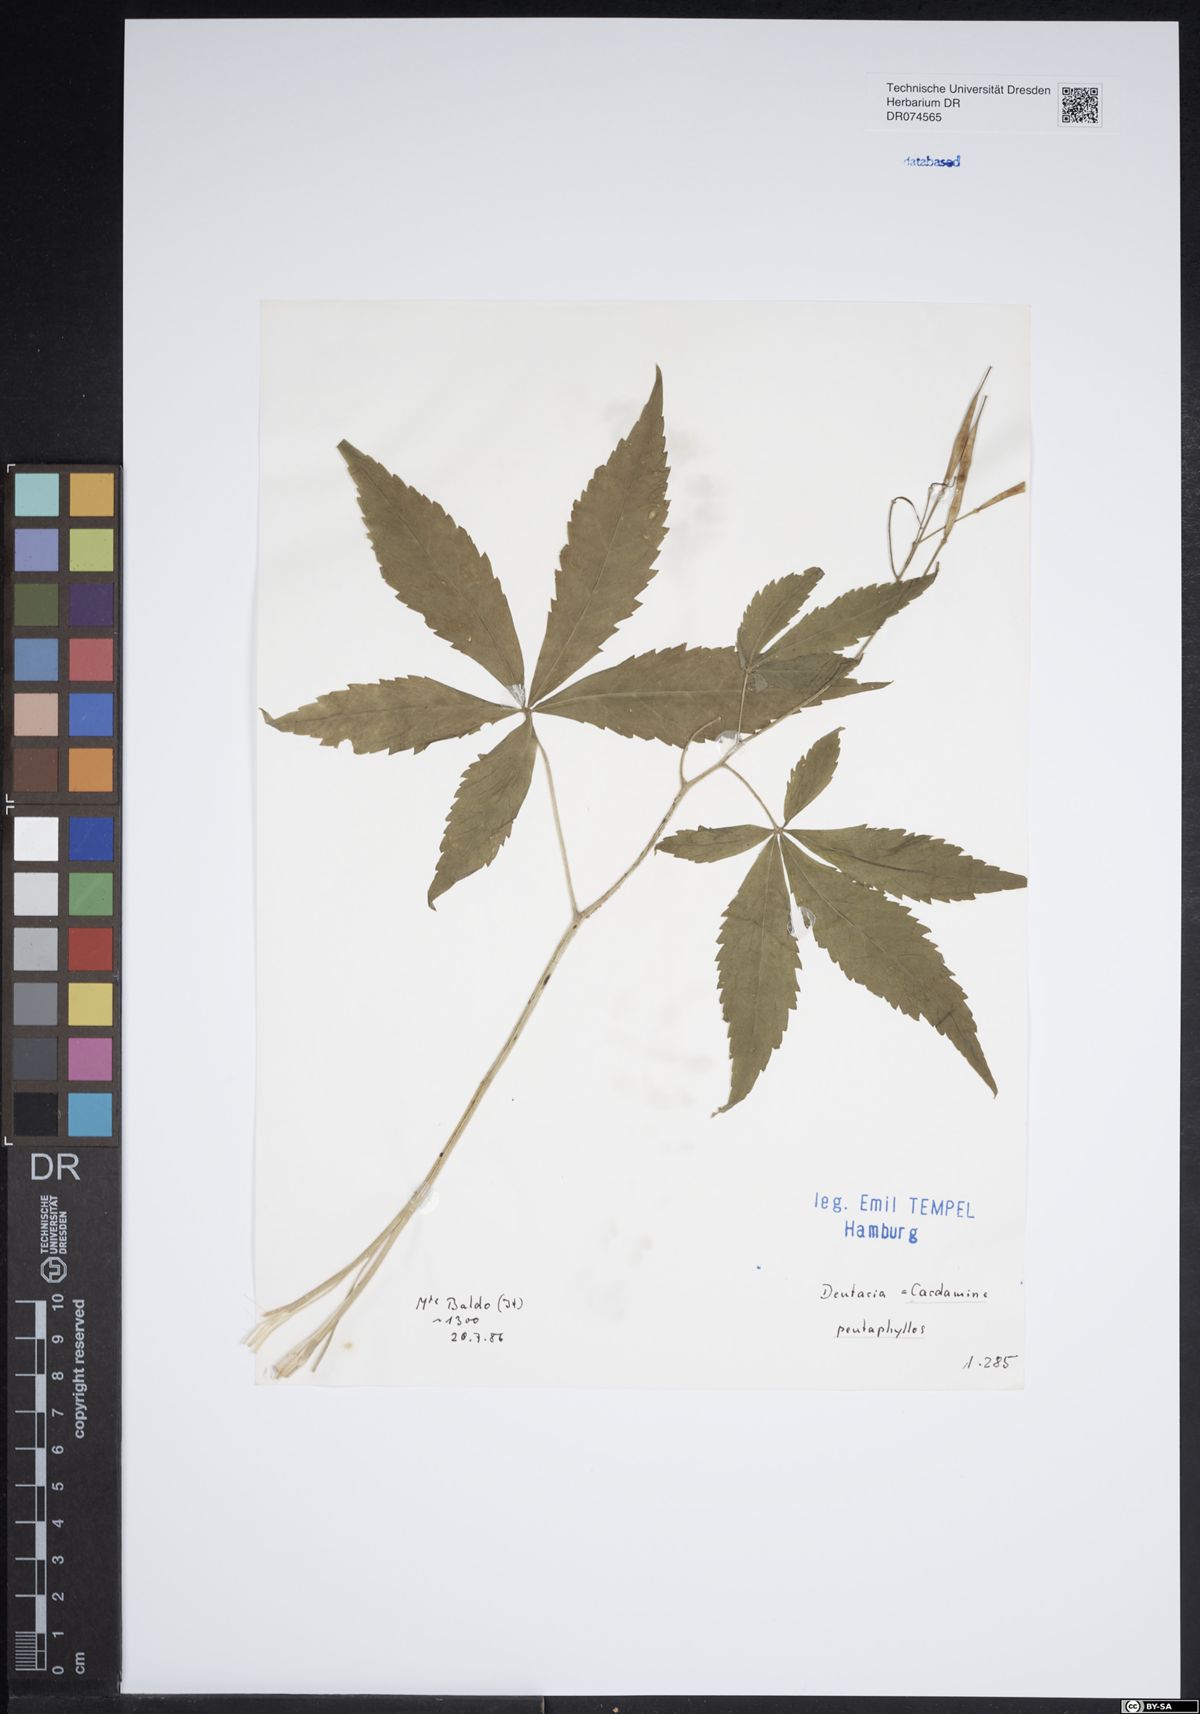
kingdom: Plantae
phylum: Tracheophyta
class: Magnoliopsida
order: Brassicales
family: Brassicaceae
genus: Cardamine
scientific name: Cardamine pentaphyllos
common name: Five-leaflet bitter-cress
